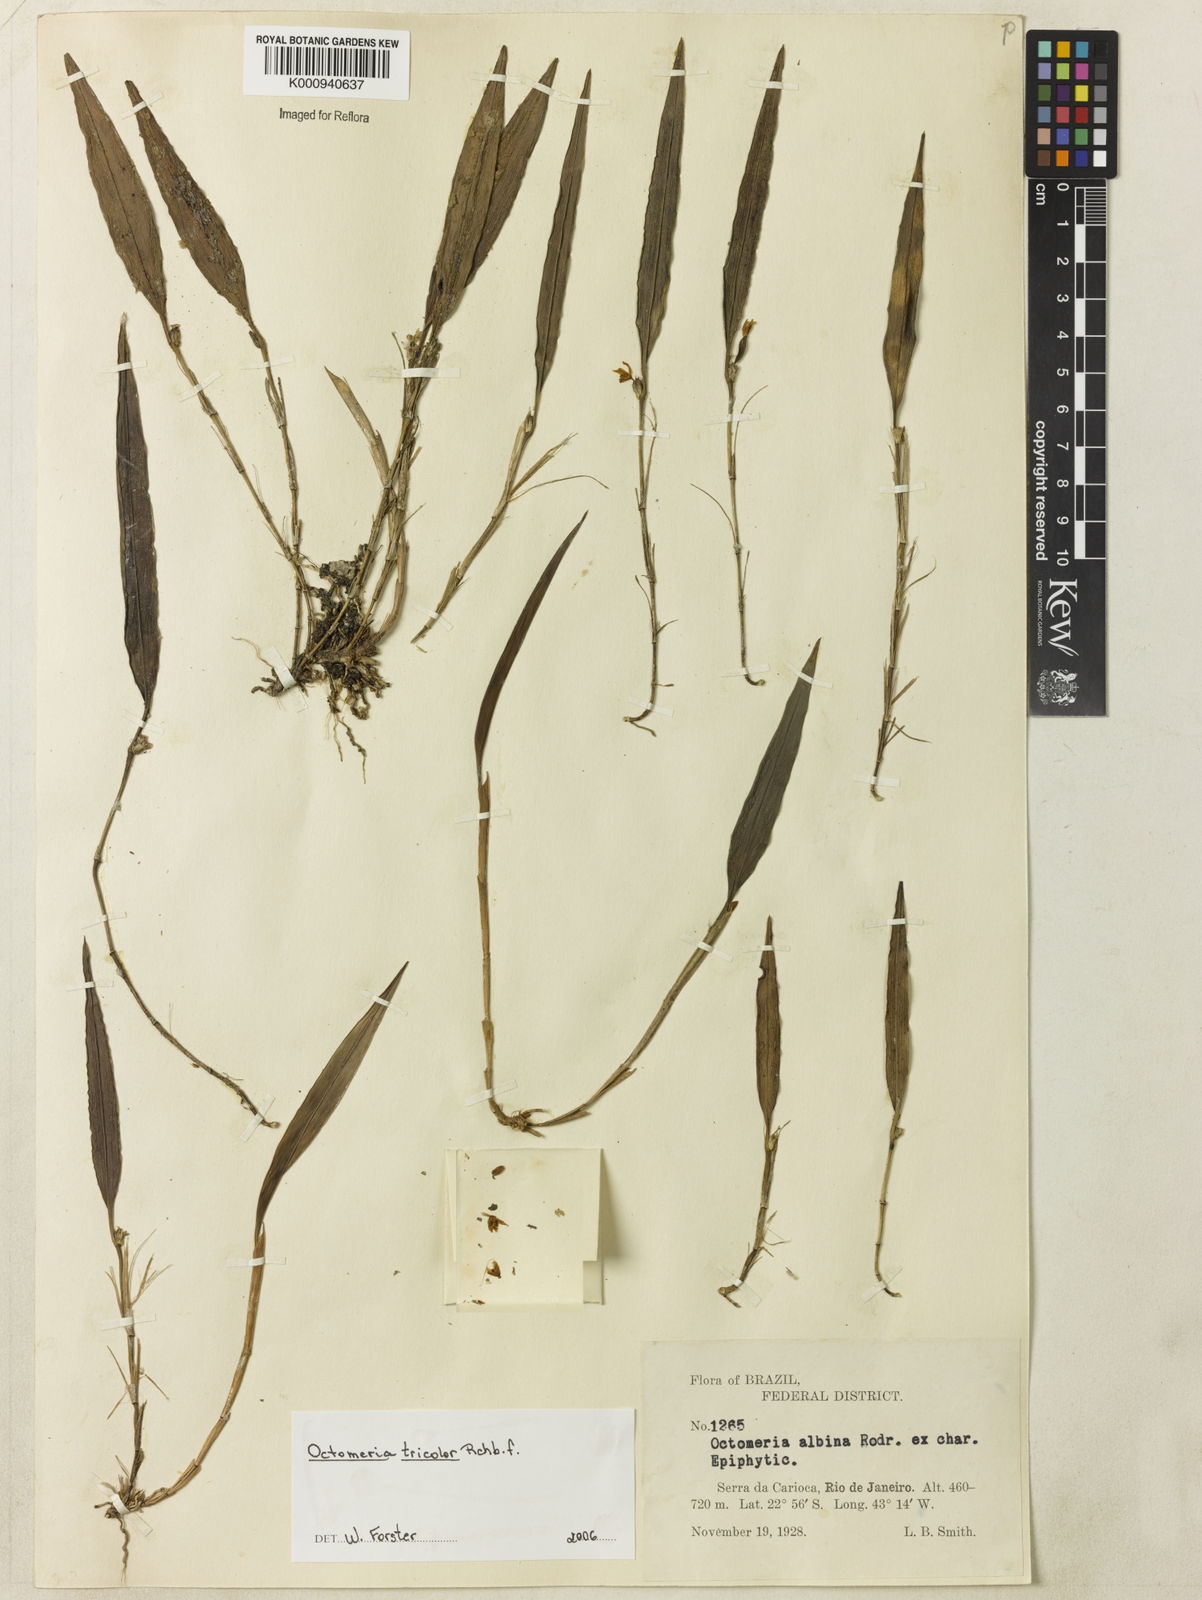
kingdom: Plantae
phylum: Tracheophyta
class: Liliopsida
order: Asparagales
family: Orchidaceae
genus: Octomeria
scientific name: Octomeria tricolor
